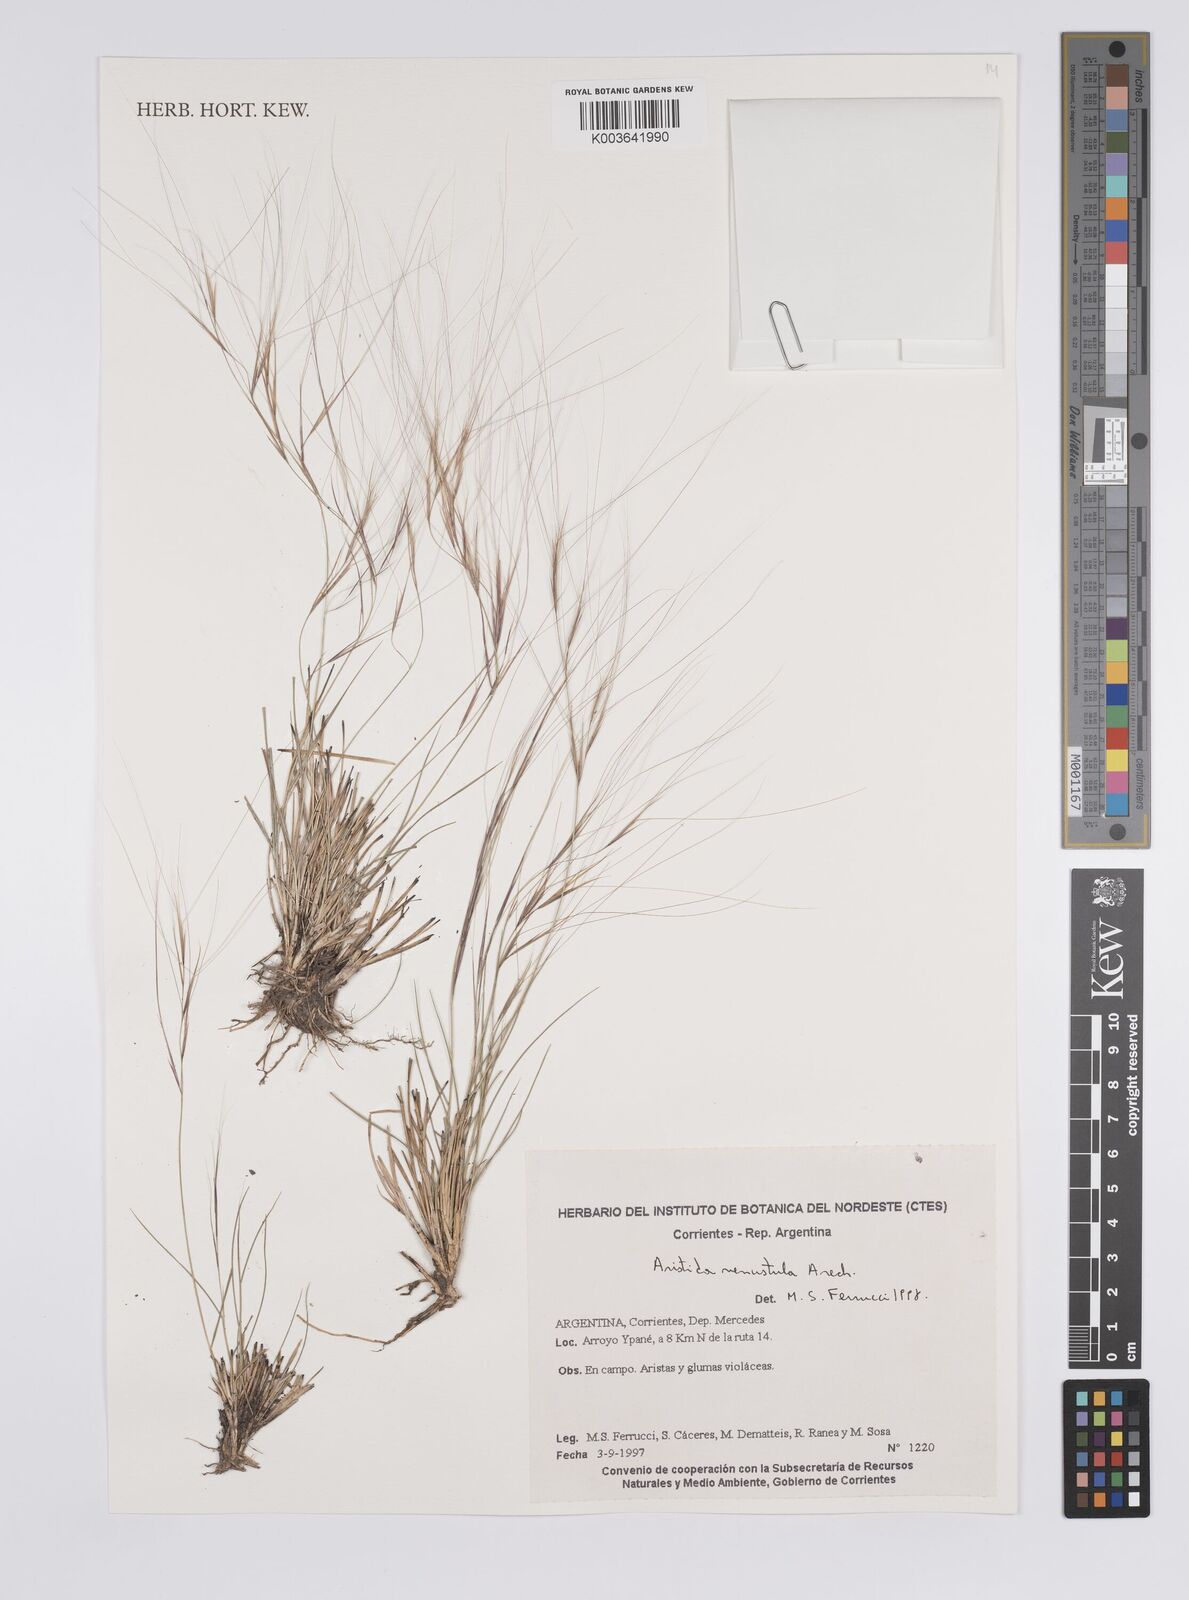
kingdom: Plantae
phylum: Tracheophyta
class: Liliopsida
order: Poales
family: Poaceae
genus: Aristida
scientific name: Aristida venustula
